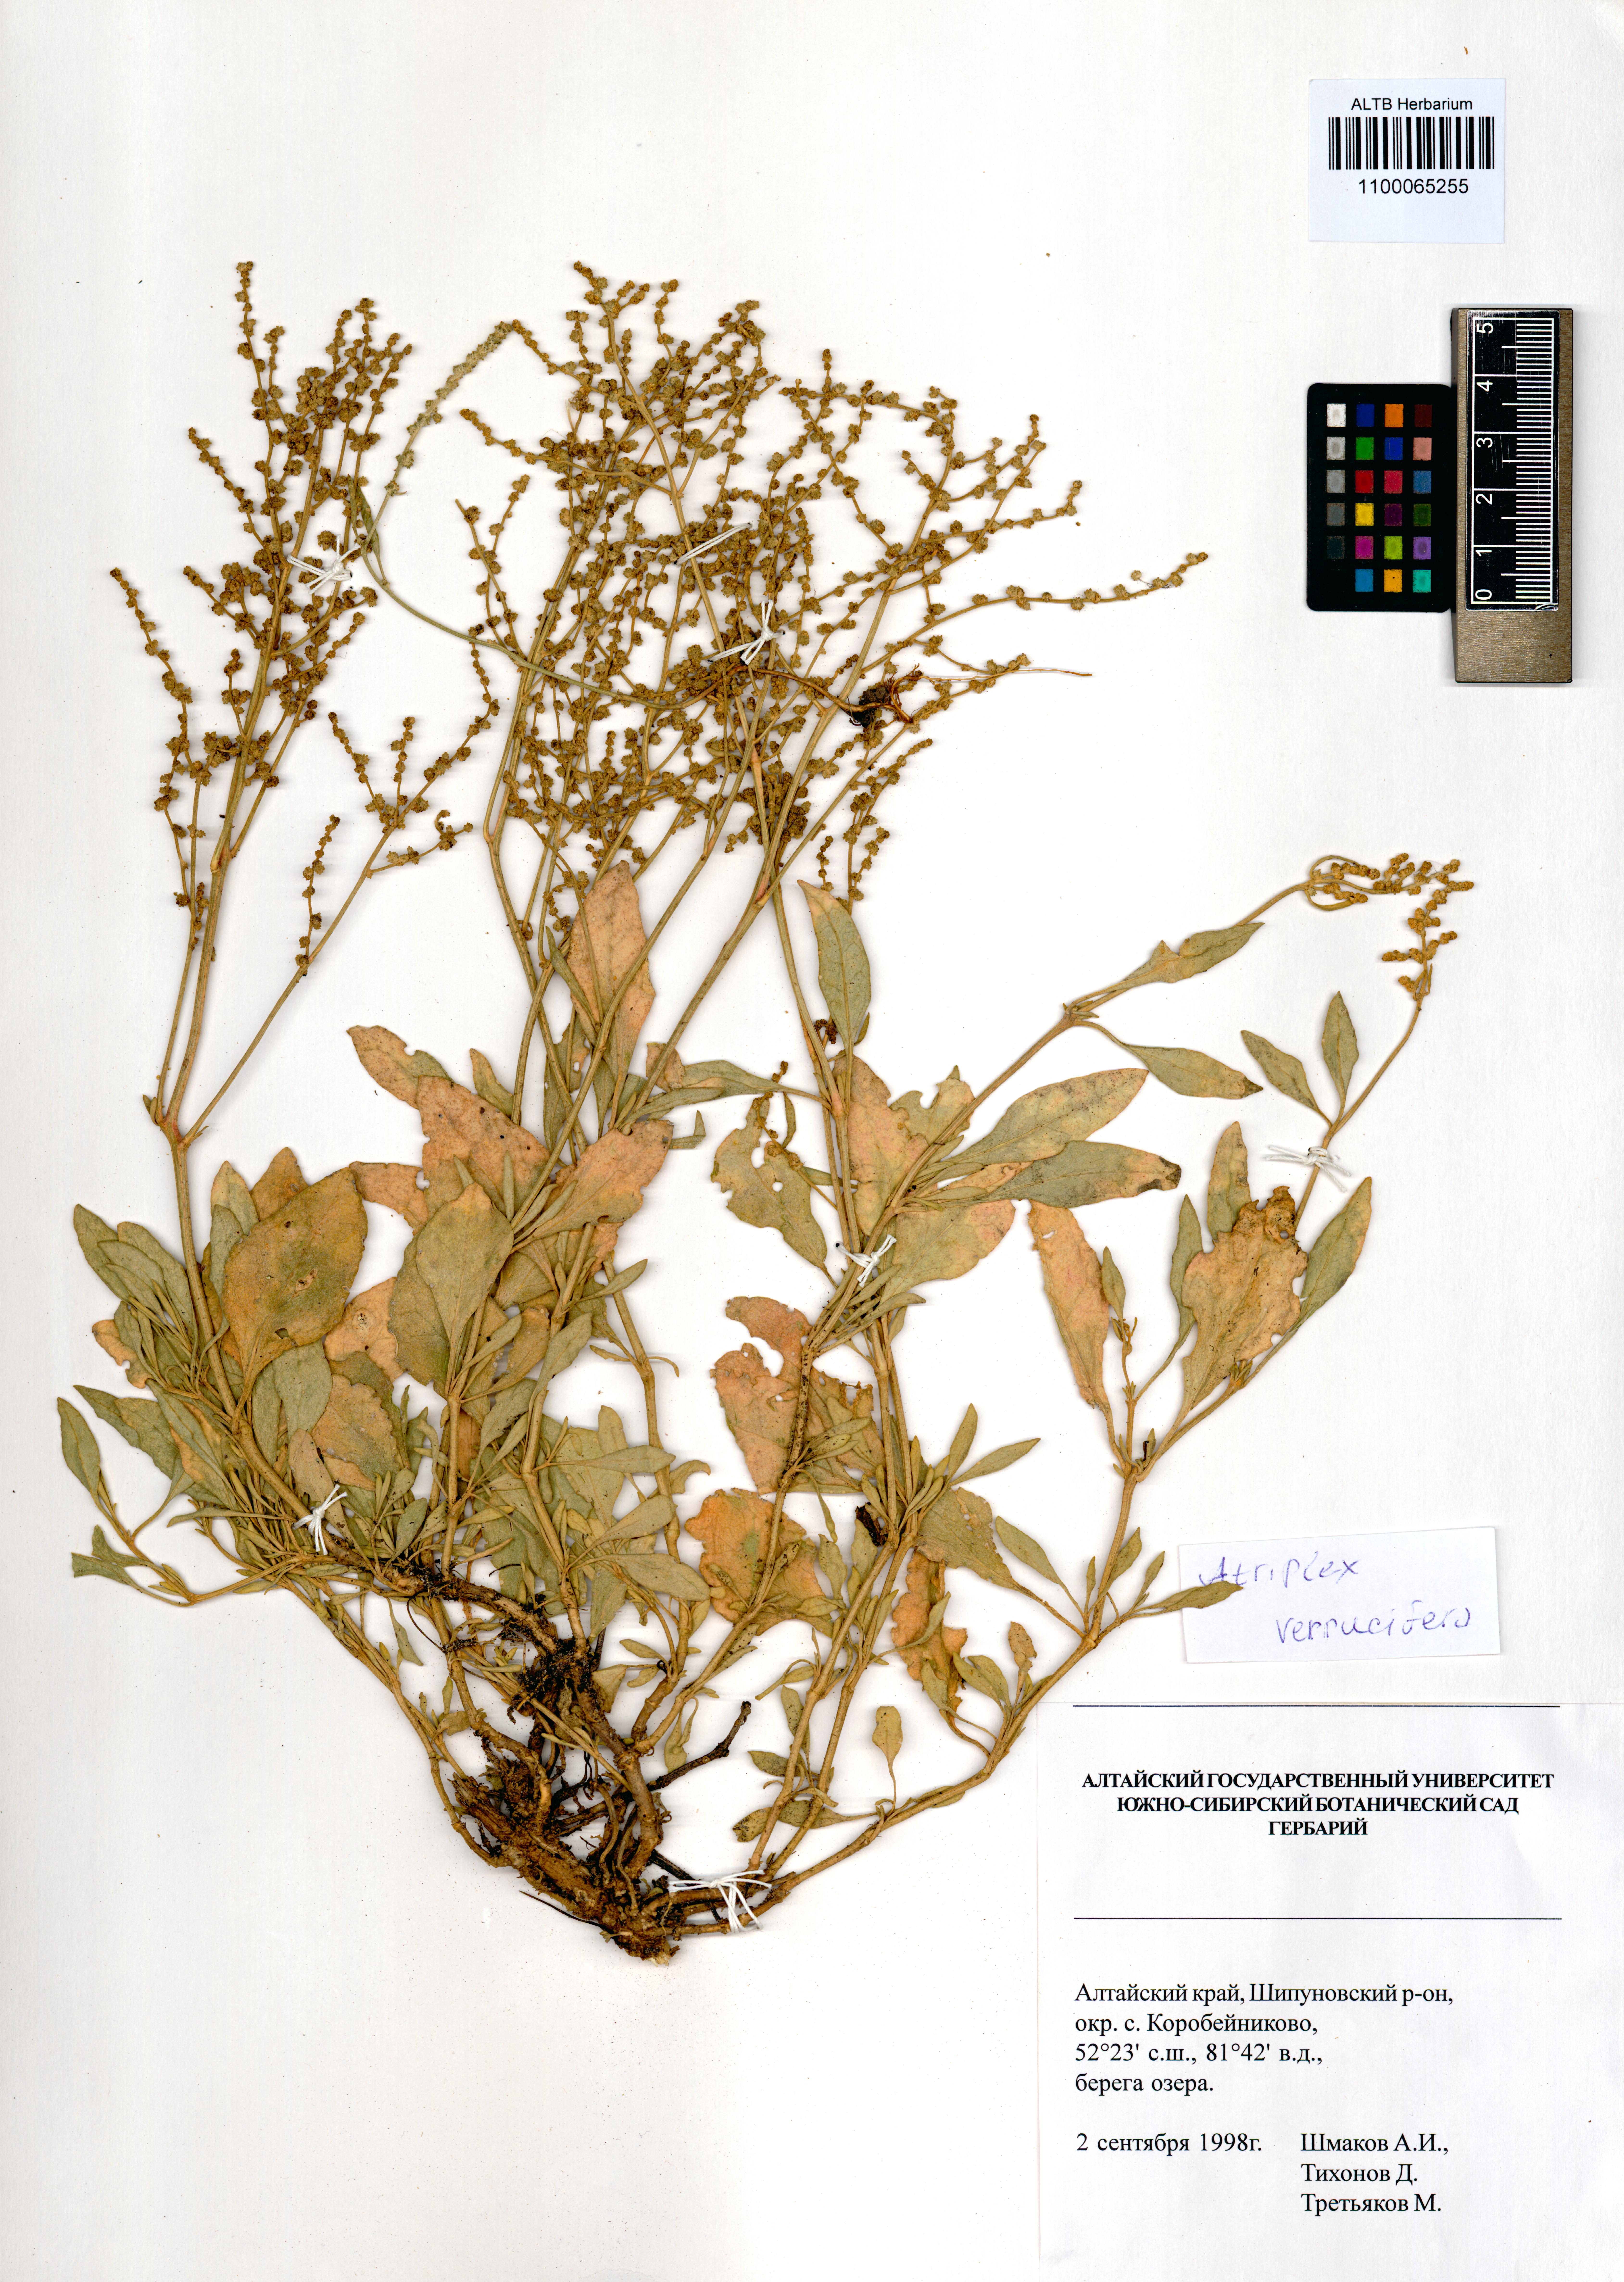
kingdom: Plantae
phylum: Tracheophyta
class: Magnoliopsida
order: Caryophyllales
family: Amaranthaceae
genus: Halimione
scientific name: Halimione verrucifera
